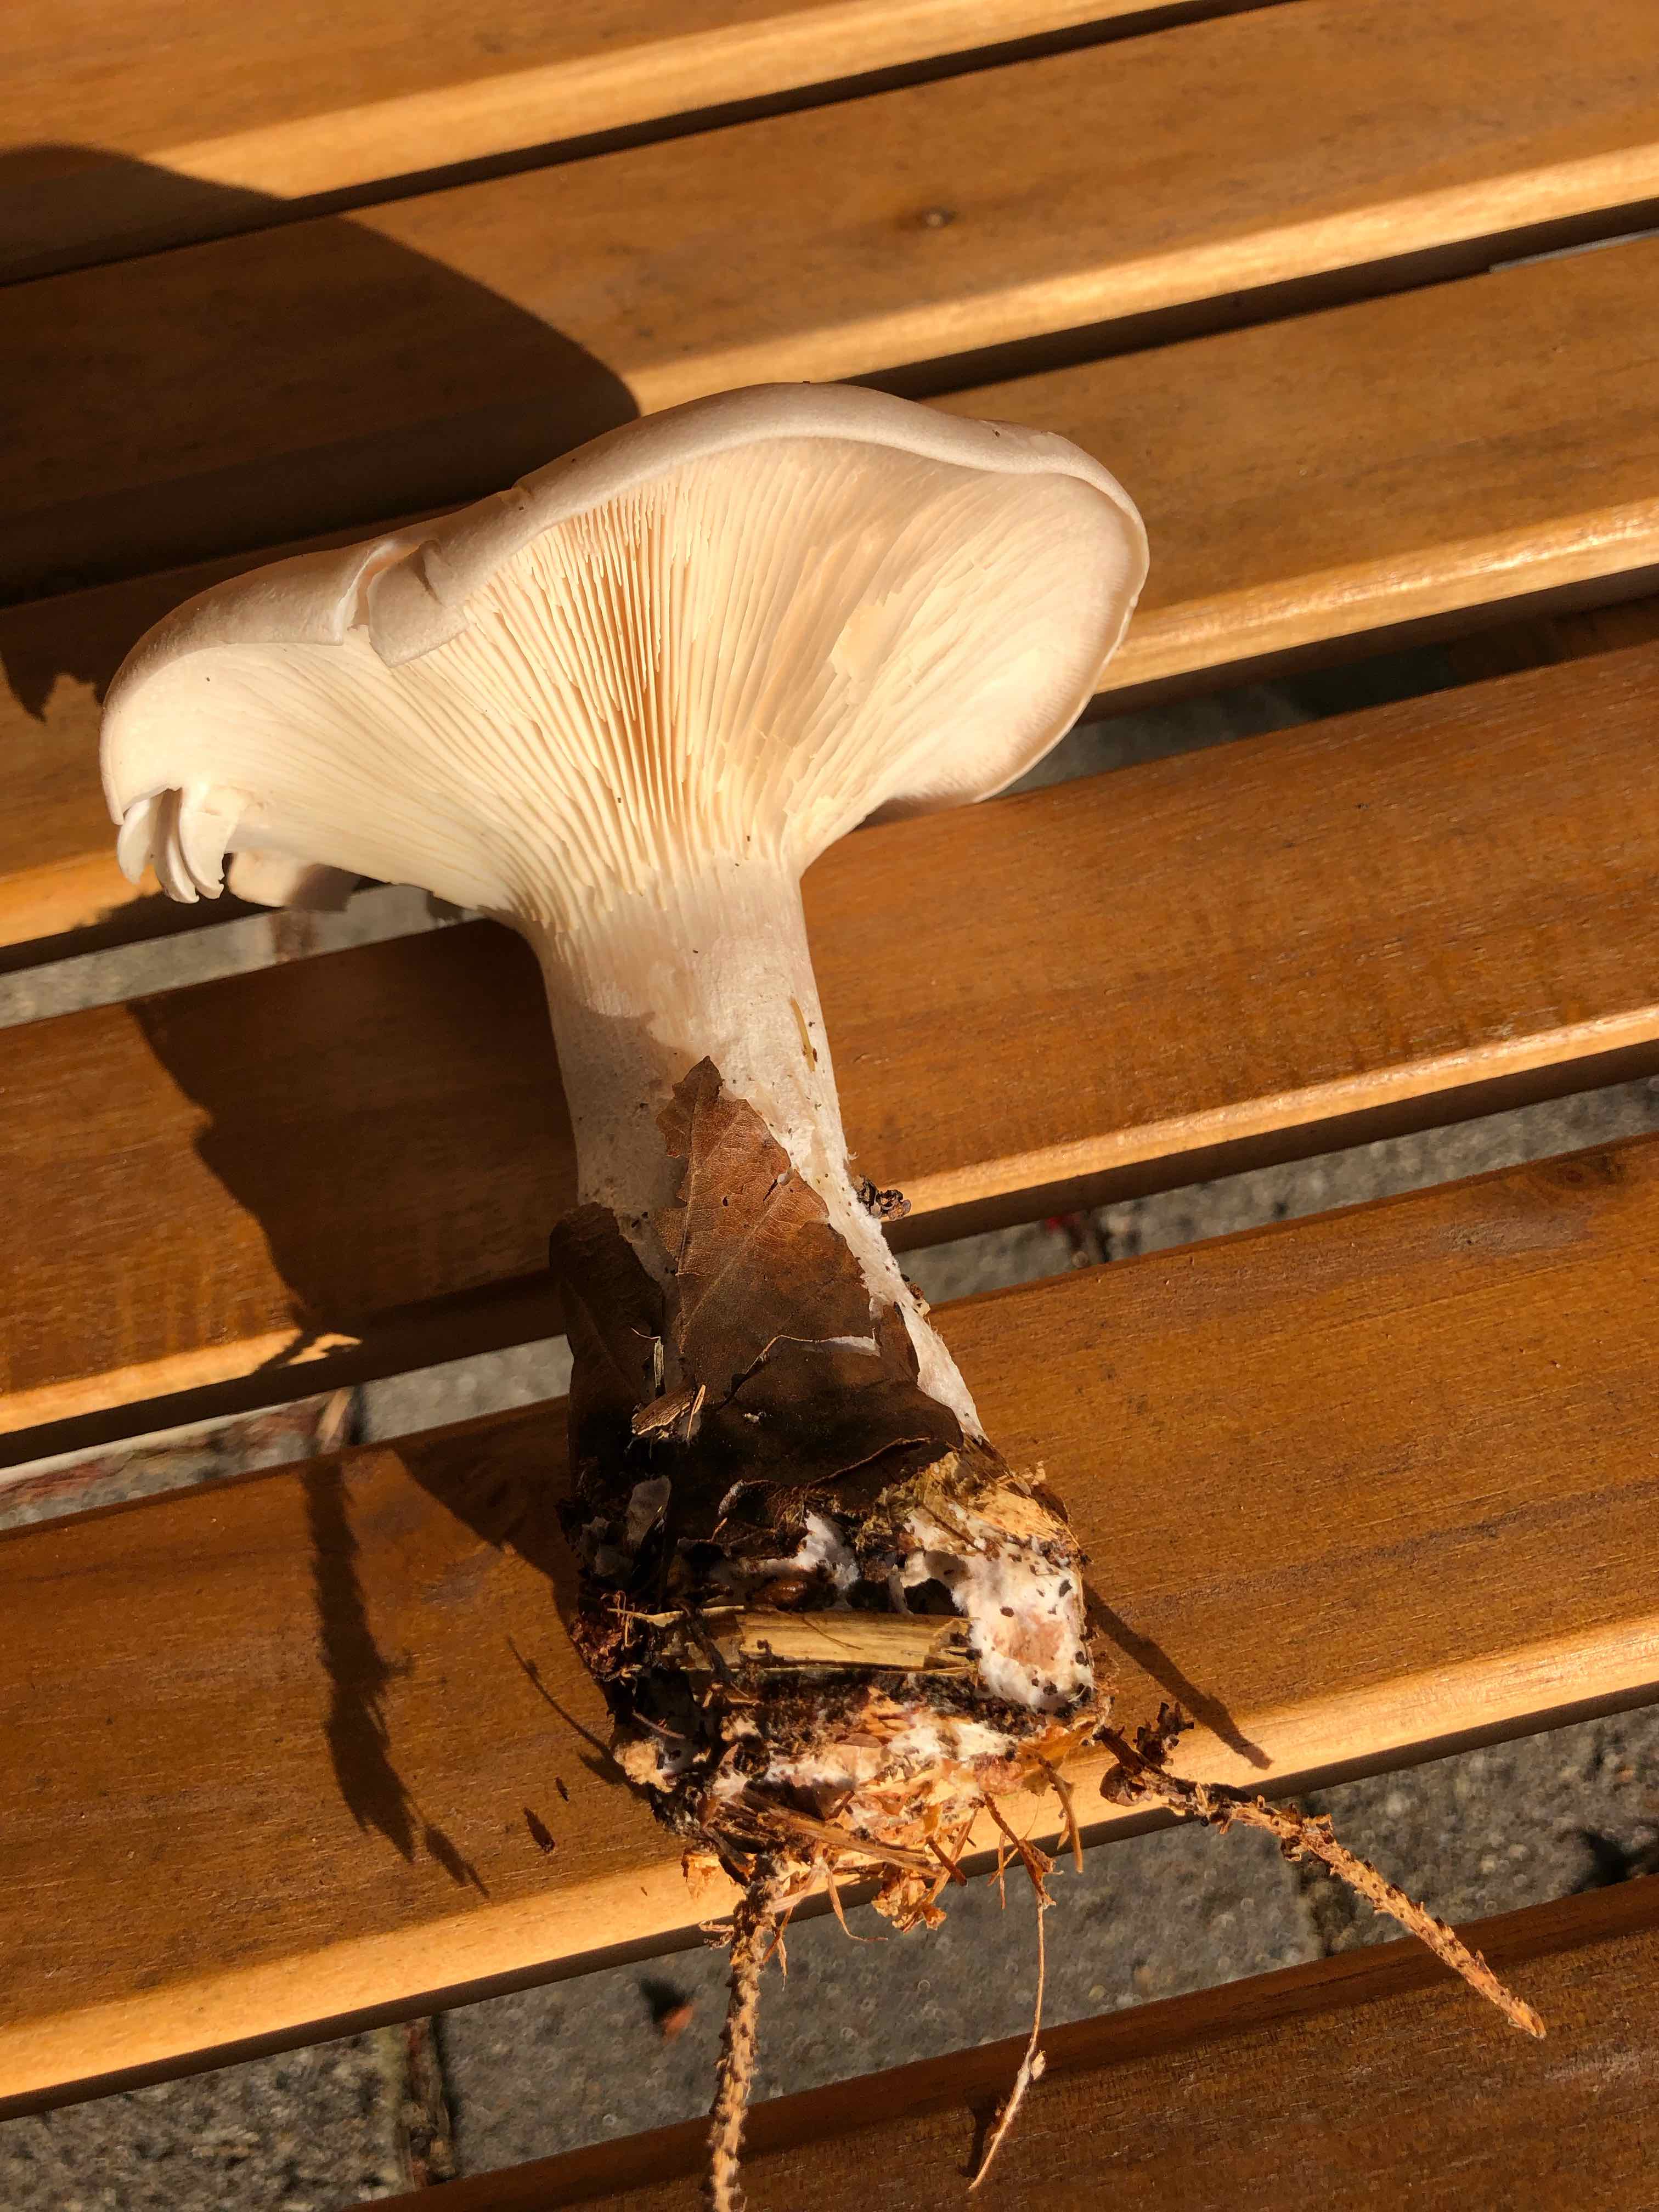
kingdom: Fungi
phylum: Basidiomycota
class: Agaricomycetes
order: Agaricales
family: Tricholomataceae
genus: Clitocybe
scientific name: Clitocybe nebularis
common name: tåge-tragthat
